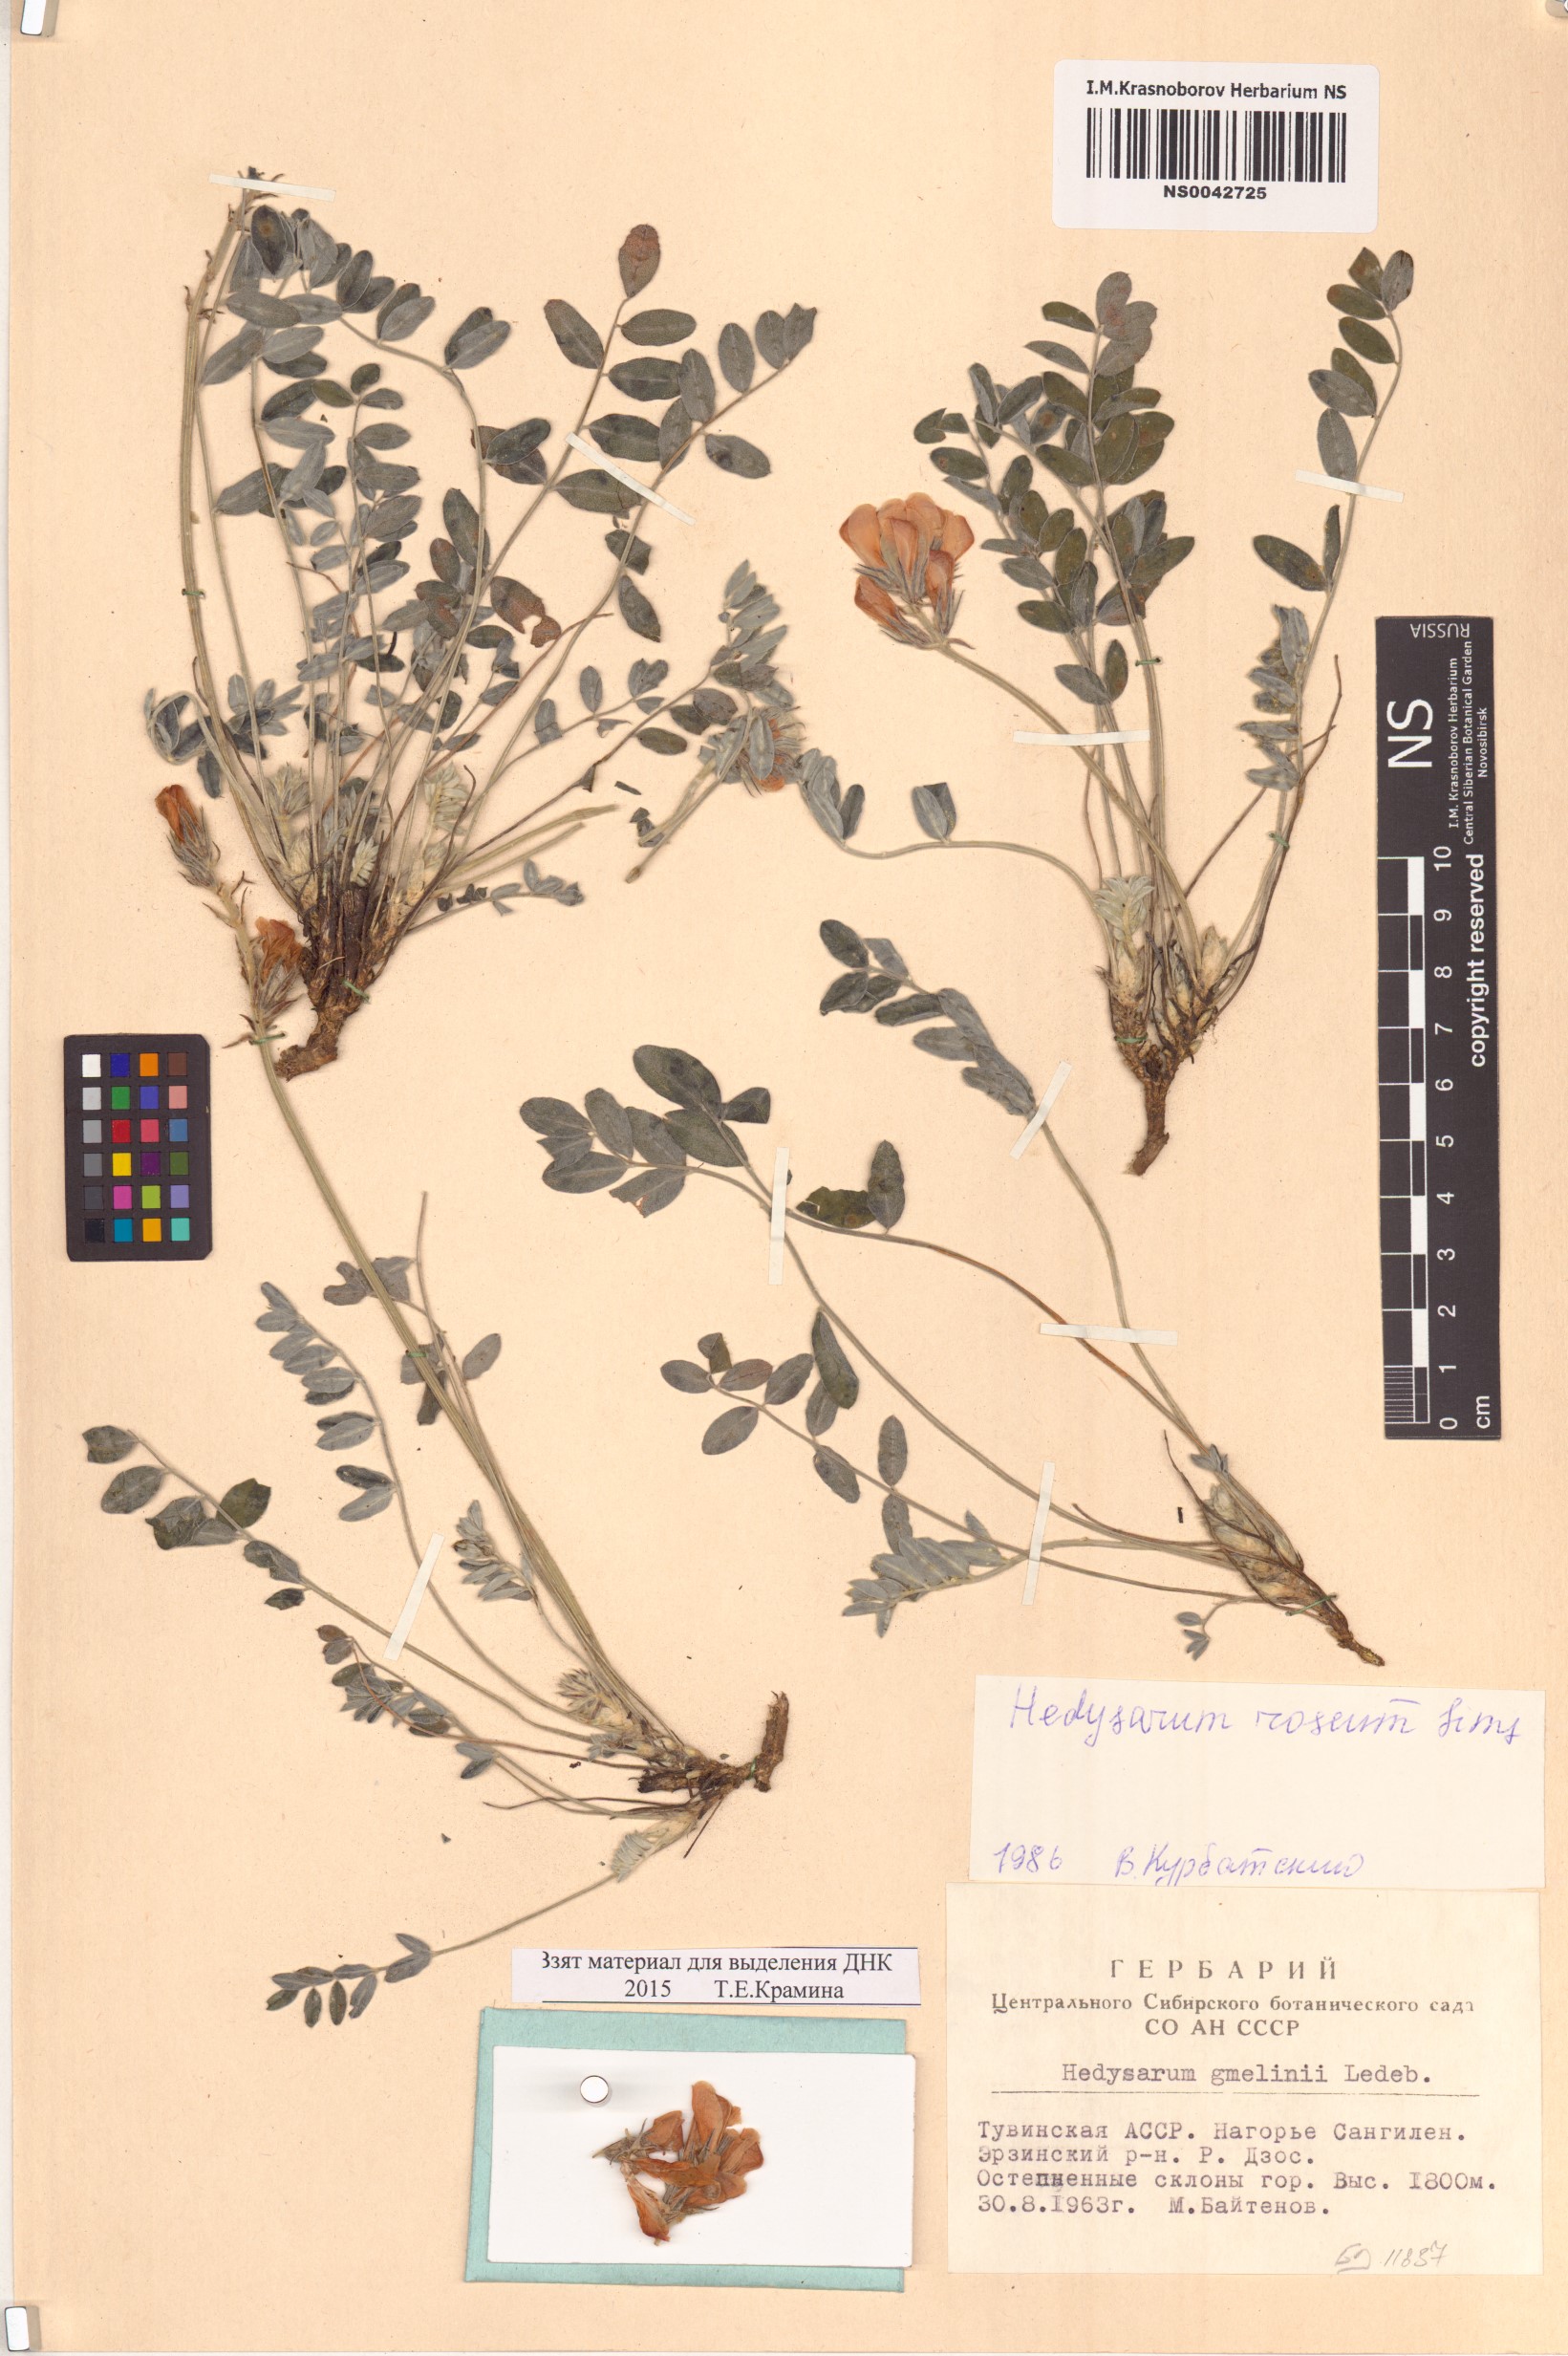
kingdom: Plantae
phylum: Tracheophyta
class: Magnoliopsida
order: Fabales
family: Fabaceae
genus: Hedysarum
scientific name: Hedysarum roseum
